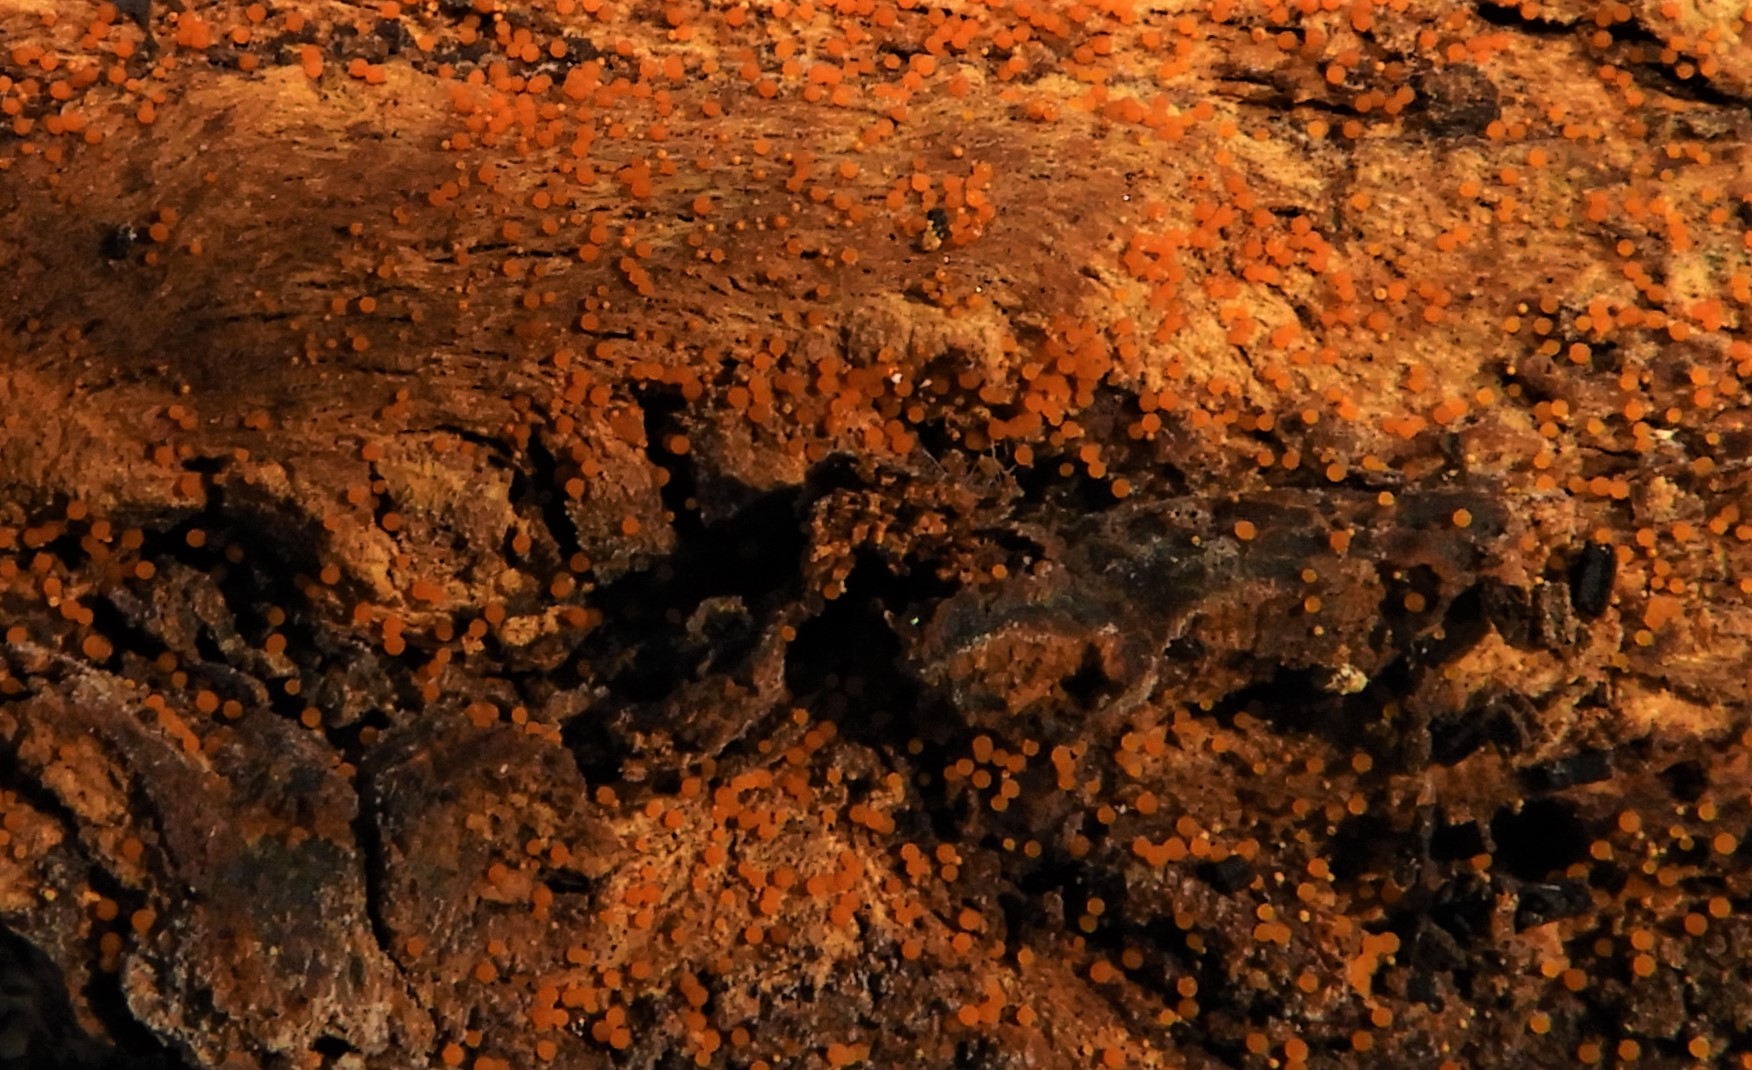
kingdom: Fungi
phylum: Ascomycota
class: Sordariomycetes
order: Hypocreales
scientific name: Hypocreales
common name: kødkerneordenen
